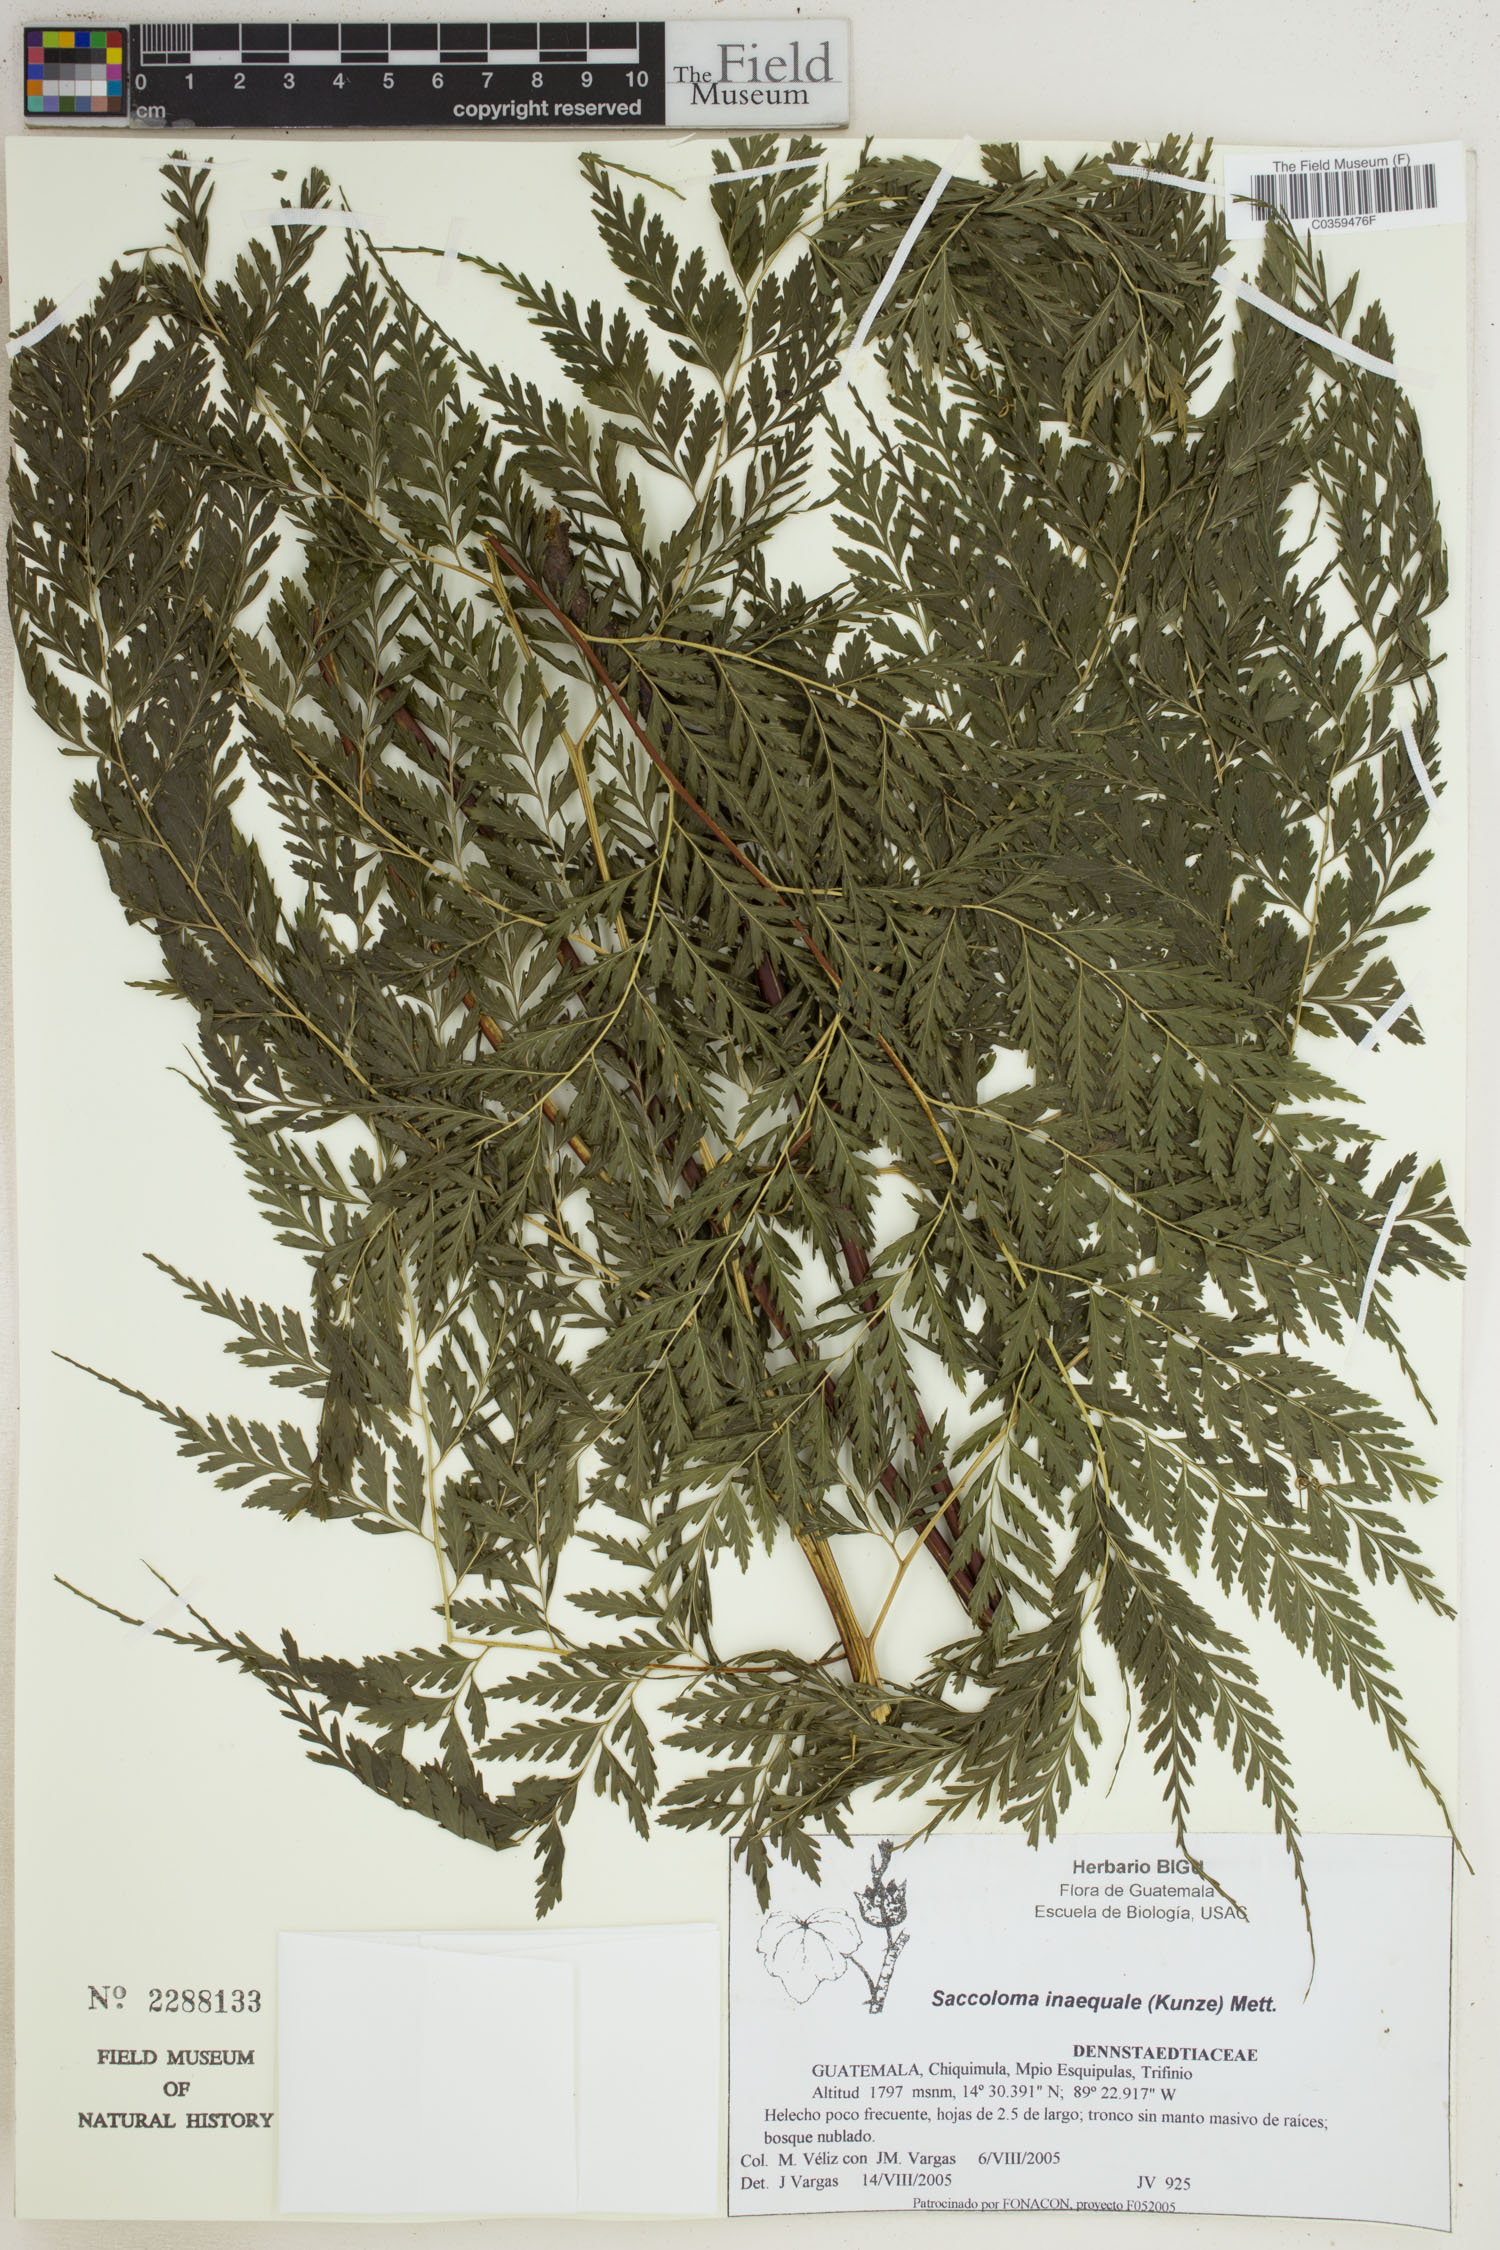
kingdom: Plantae
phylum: Tracheophyta
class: Polypodiopsida
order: Polypodiales
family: Saccolomataceae
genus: Saccoloma
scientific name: Saccoloma inaequale
